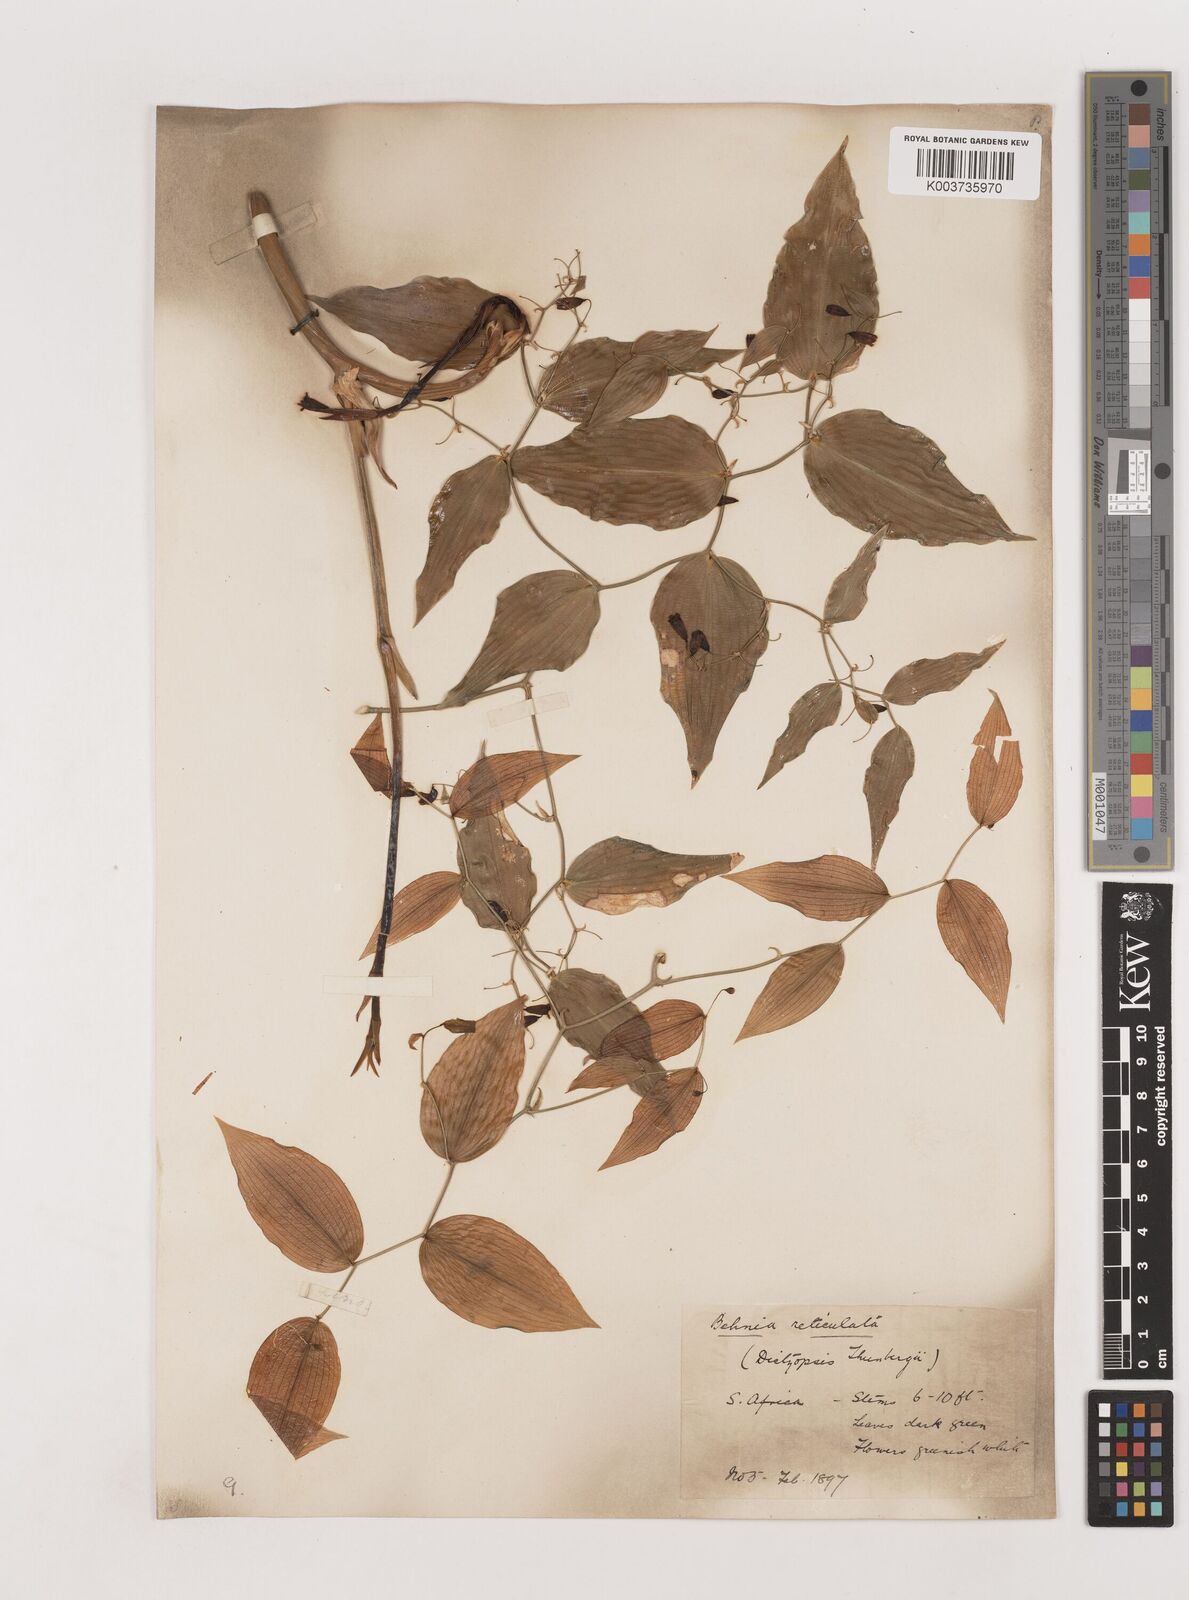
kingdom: Plantae
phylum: Tracheophyta
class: Liliopsida
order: Asparagales
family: Asparagaceae
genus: Behnia
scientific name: Behnia reticulata
